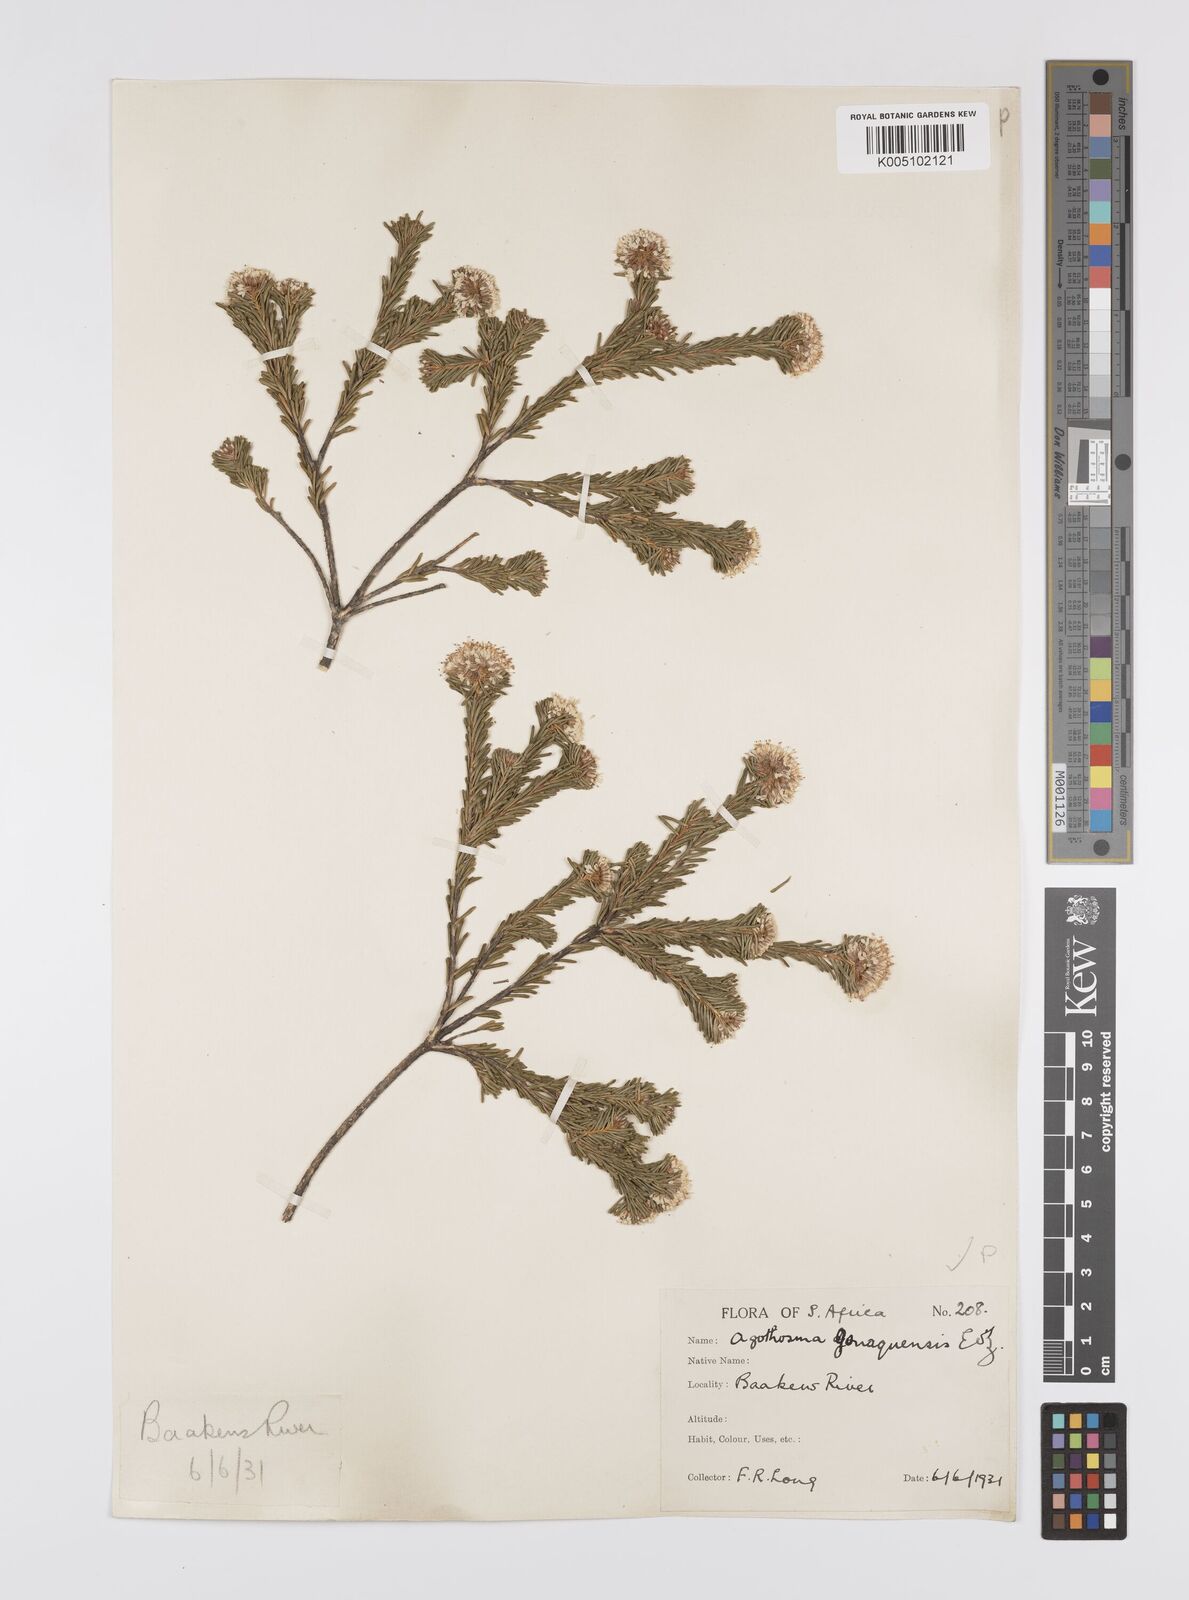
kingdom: Plantae
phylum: Tracheophyta
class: Magnoliopsida
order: Sapindales
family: Rutaceae
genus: Agathosma
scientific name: Agathosma gonaquensis
